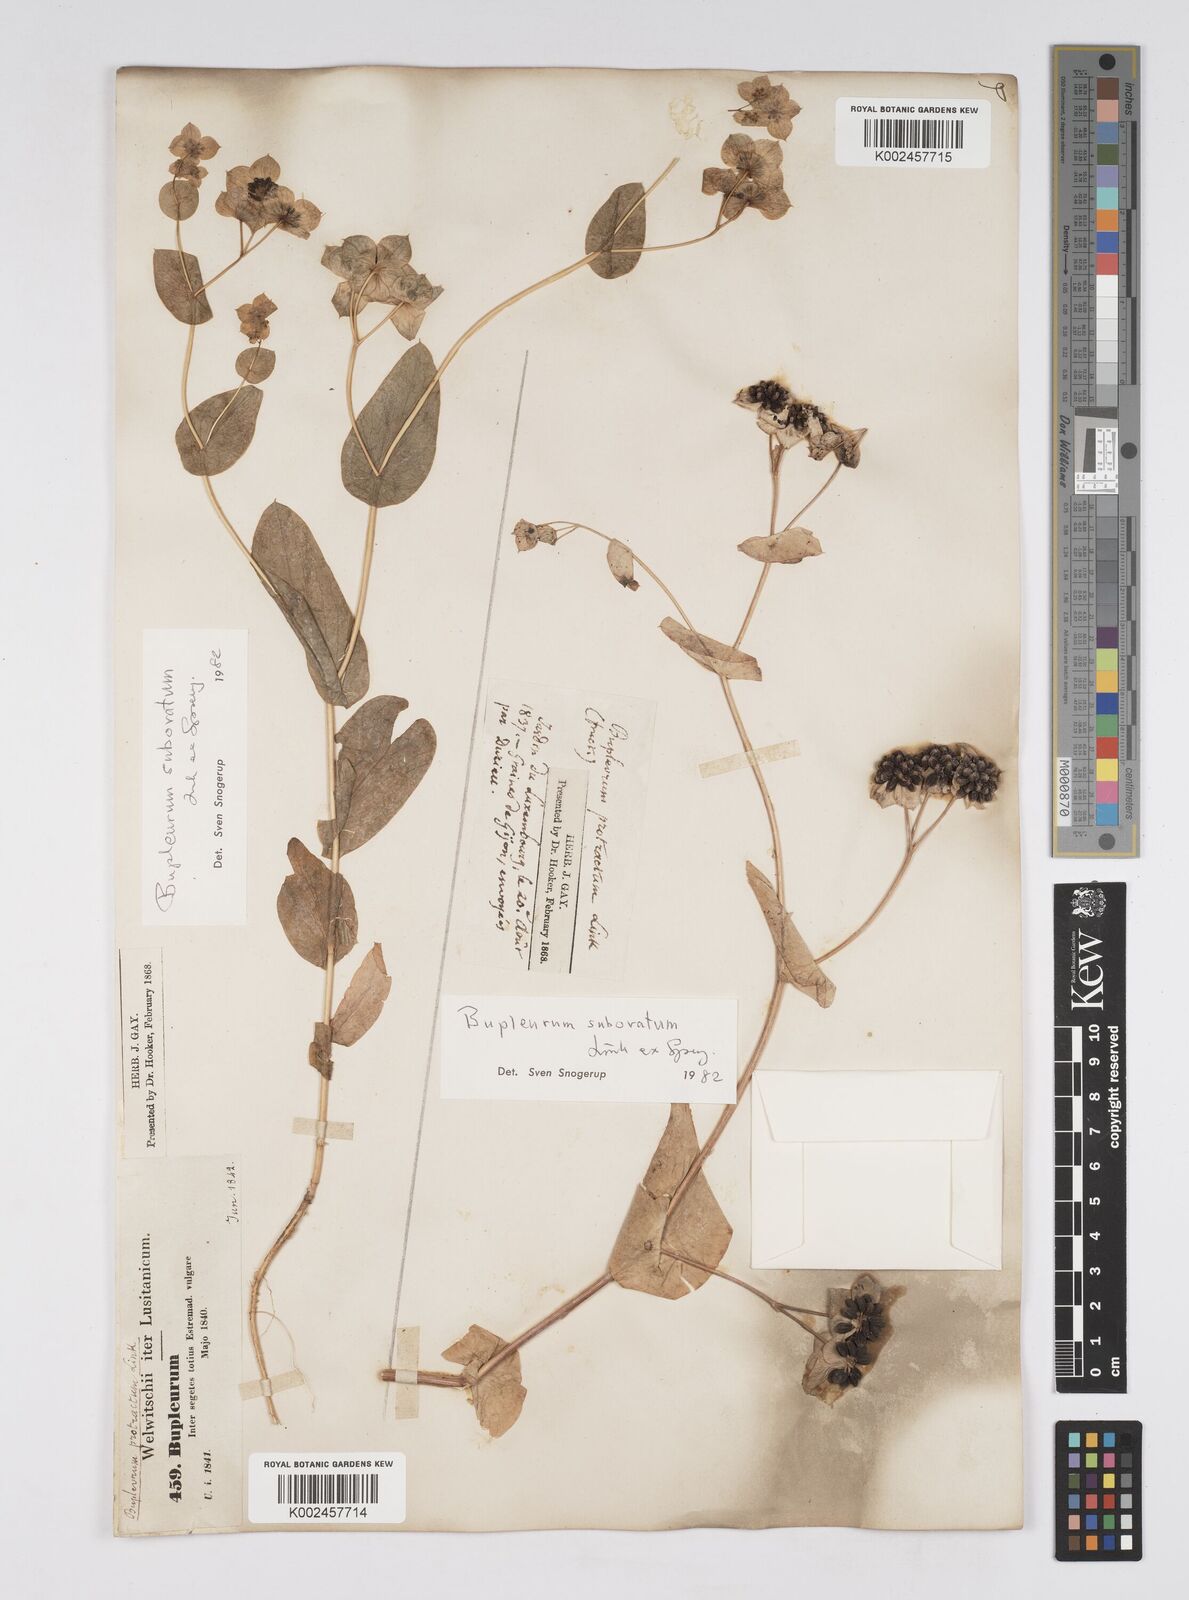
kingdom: Plantae
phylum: Tracheophyta
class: Magnoliopsida
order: Apiales
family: Apiaceae
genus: Bupleurum
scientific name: Bupleurum lancifolium
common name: False thorow-wax
